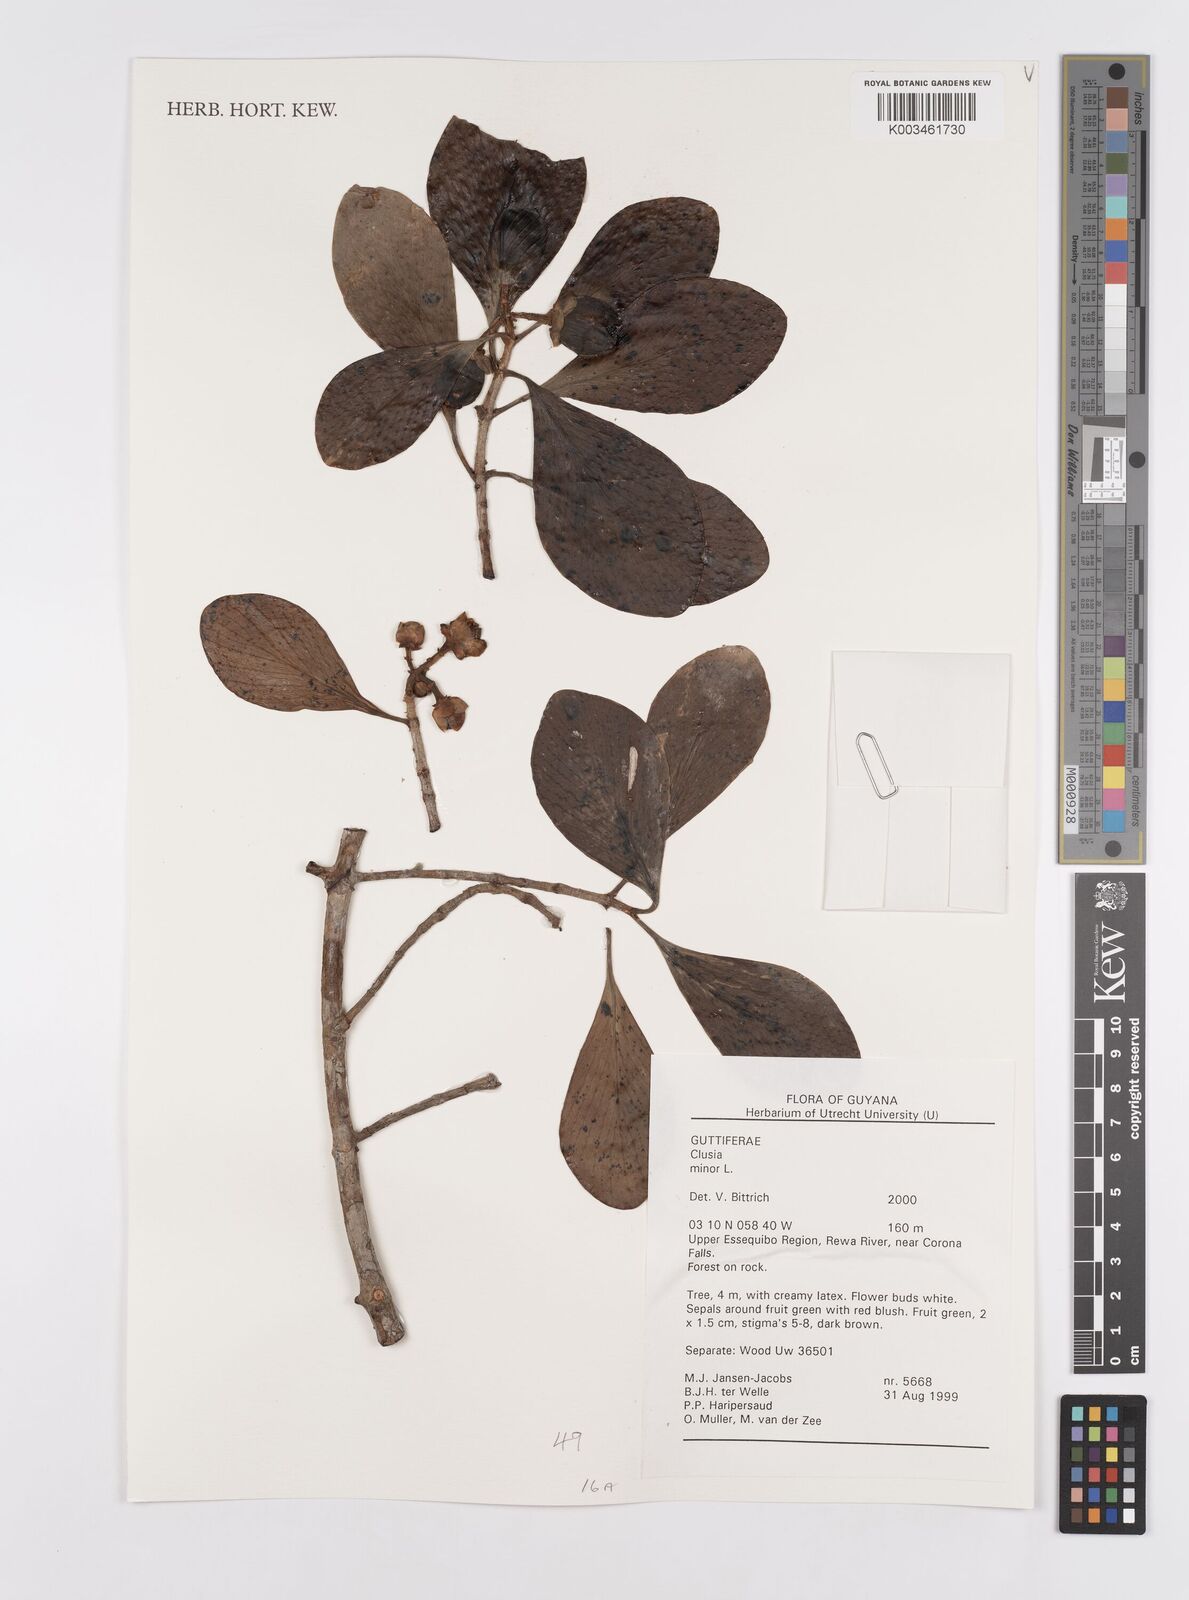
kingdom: Plantae
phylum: Tracheophyta
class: Magnoliopsida
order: Malpighiales
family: Clusiaceae
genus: Clusia
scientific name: Clusia minor
